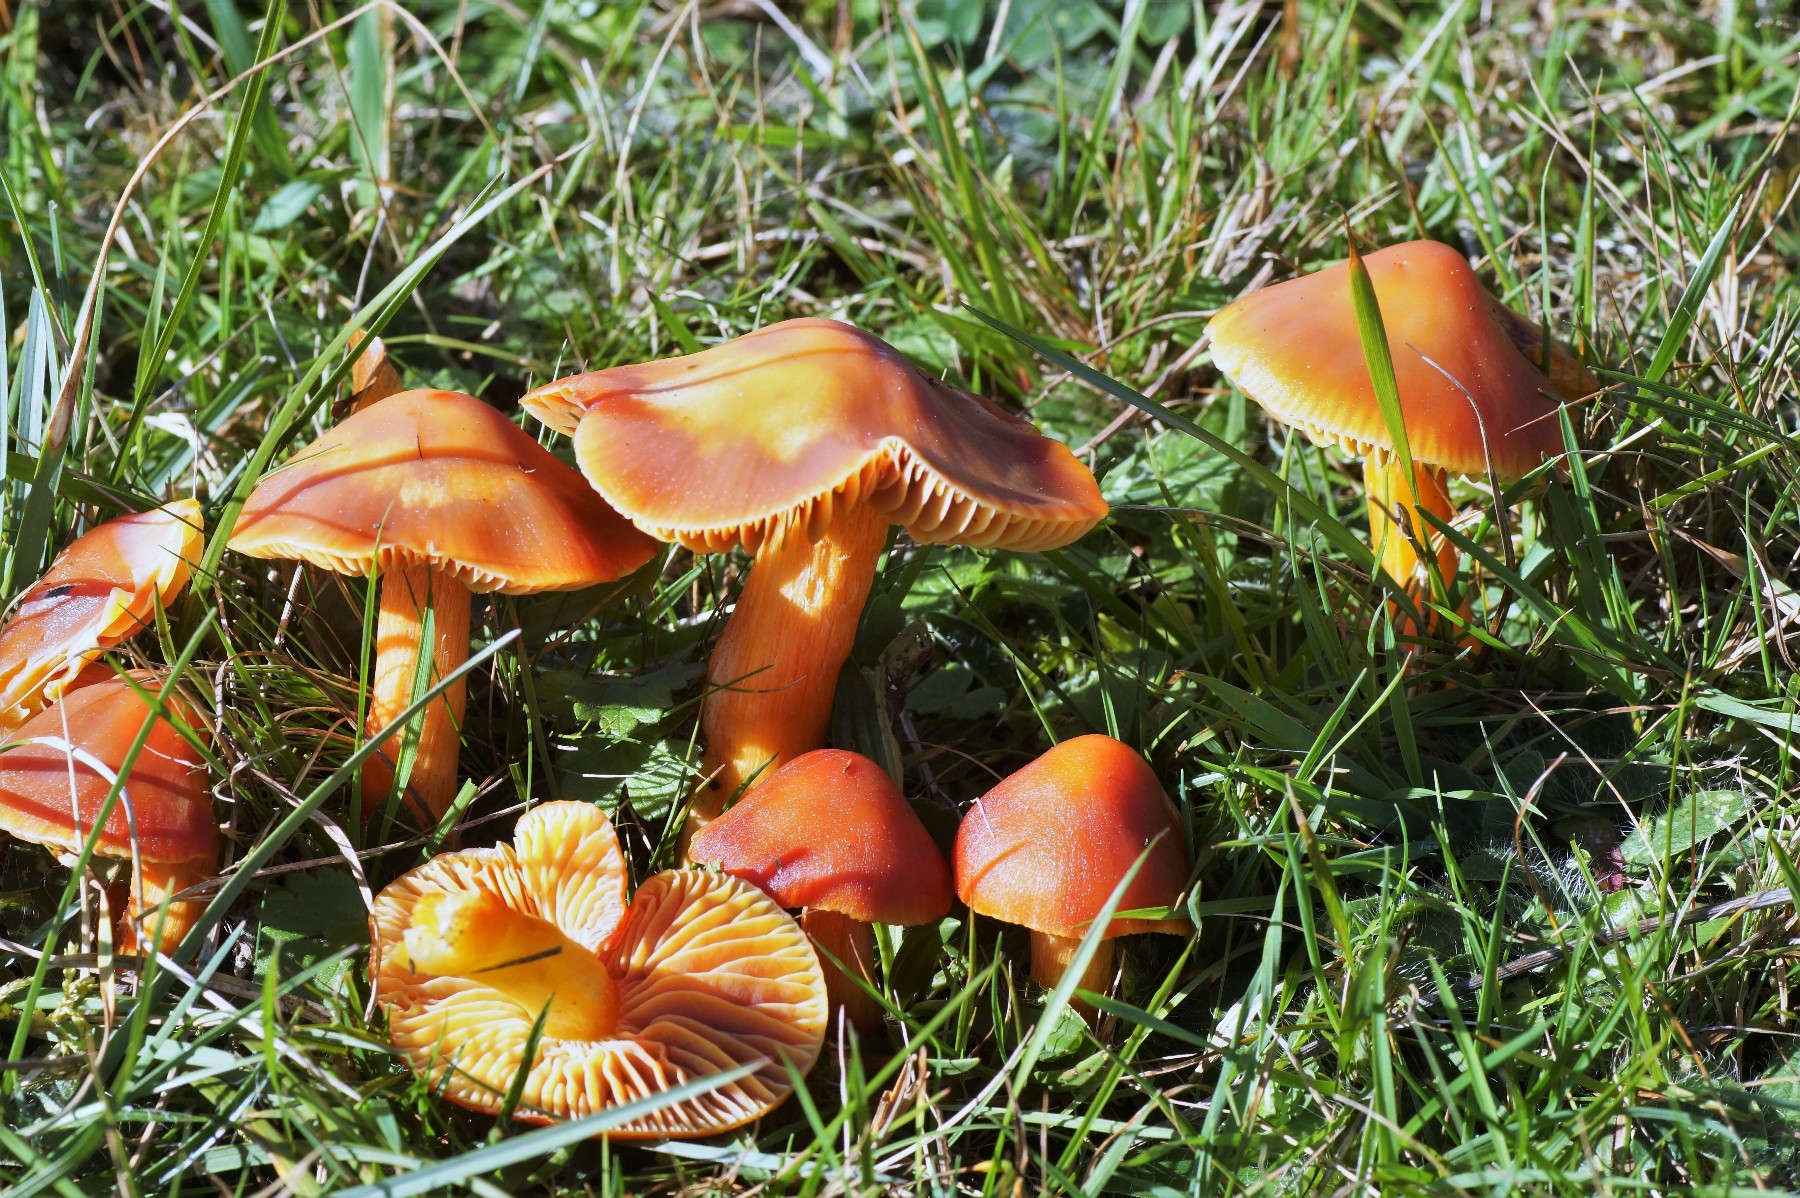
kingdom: Fungi
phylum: Basidiomycota
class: Agaricomycetes
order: Agaricales
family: Hygrophoraceae
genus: Hygrocybe
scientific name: Hygrocybe punicea
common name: skarlagen-vokshat
